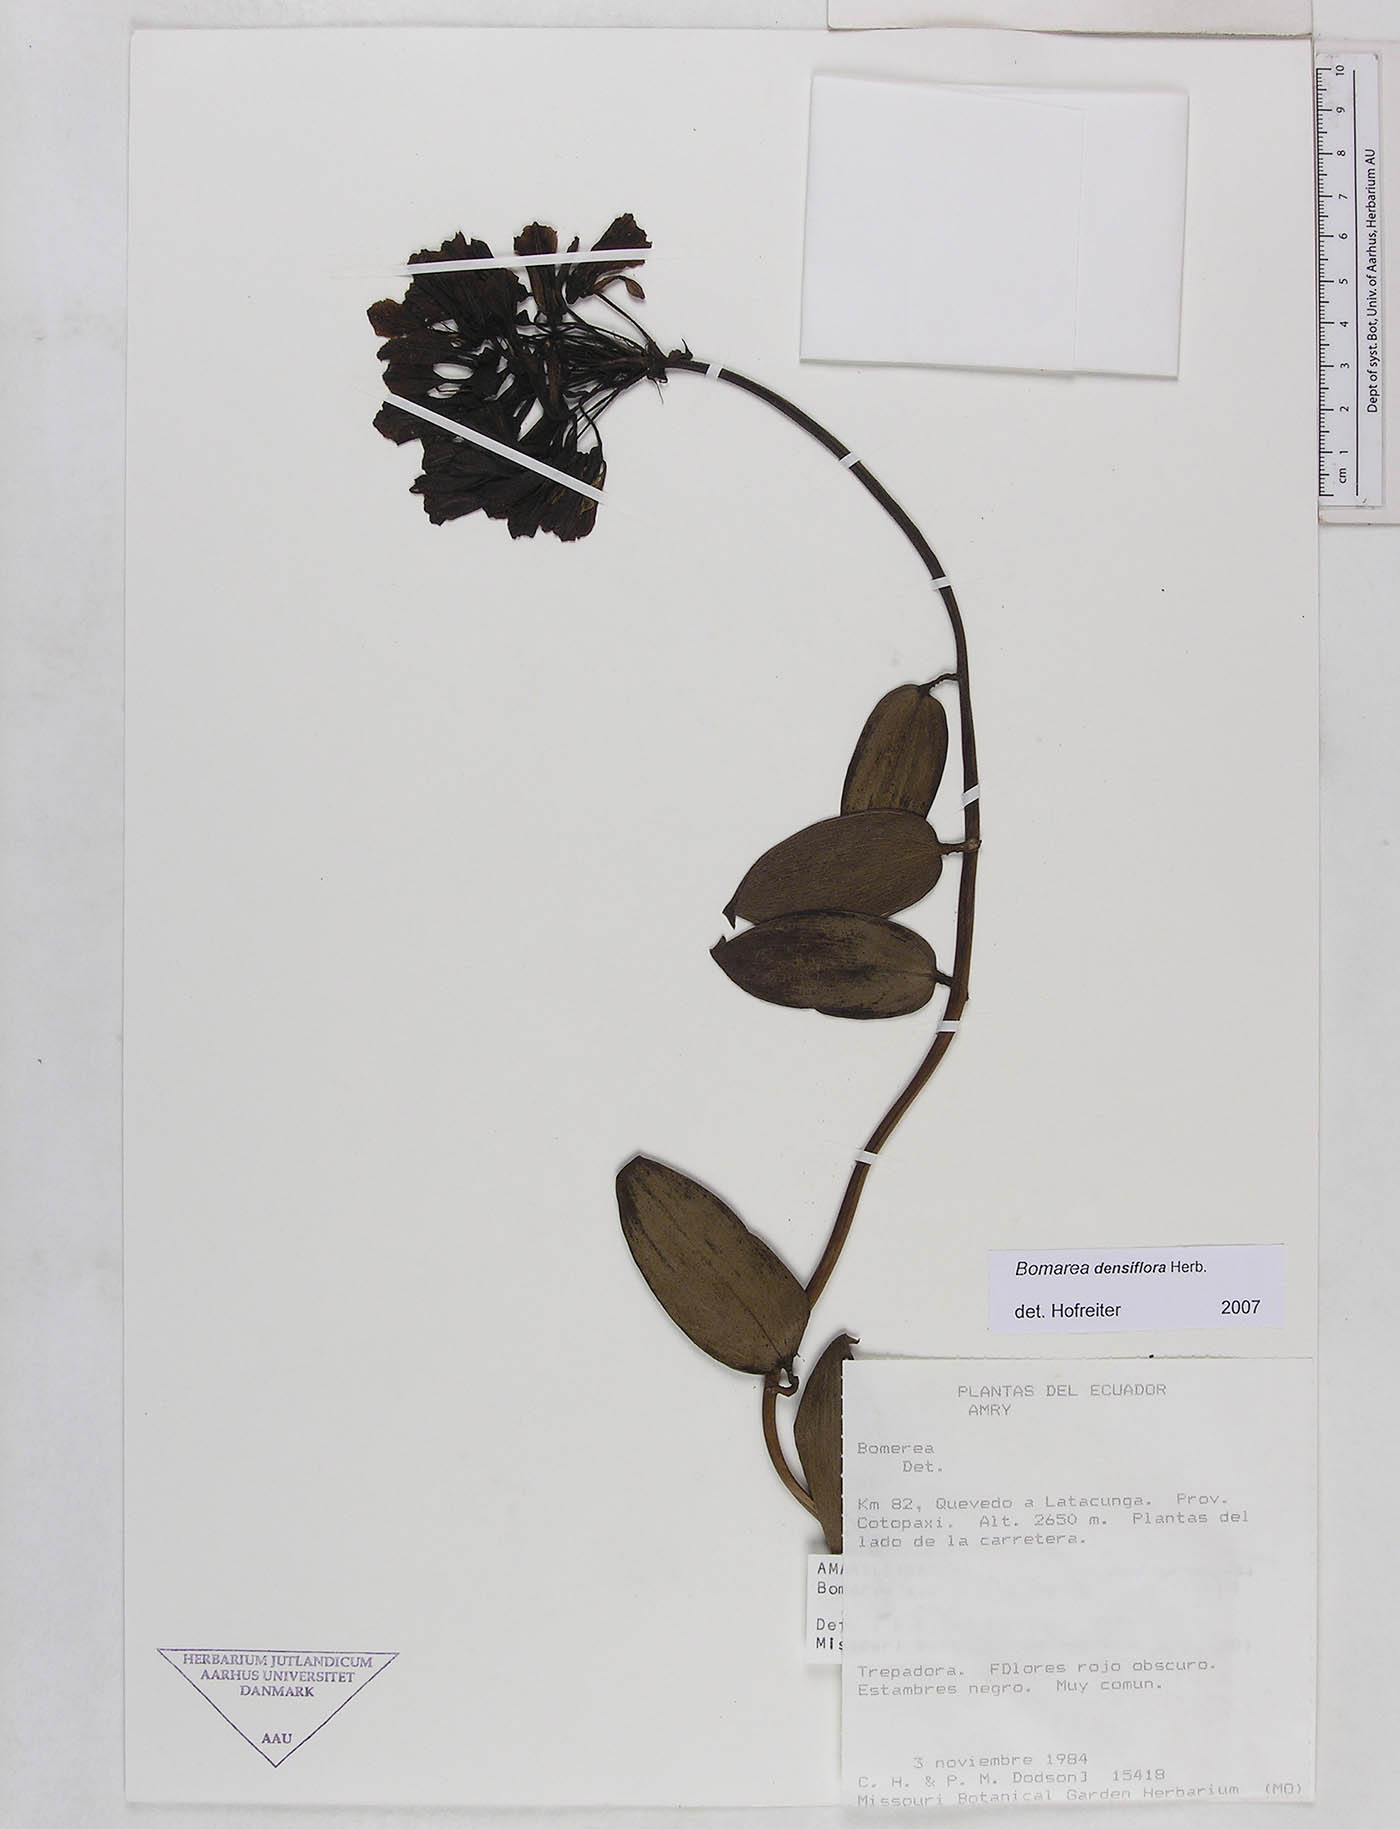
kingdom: Plantae
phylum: Tracheophyta
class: Liliopsida
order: Liliales
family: Alstroemeriaceae
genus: Bomarea
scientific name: Bomarea densiflora
